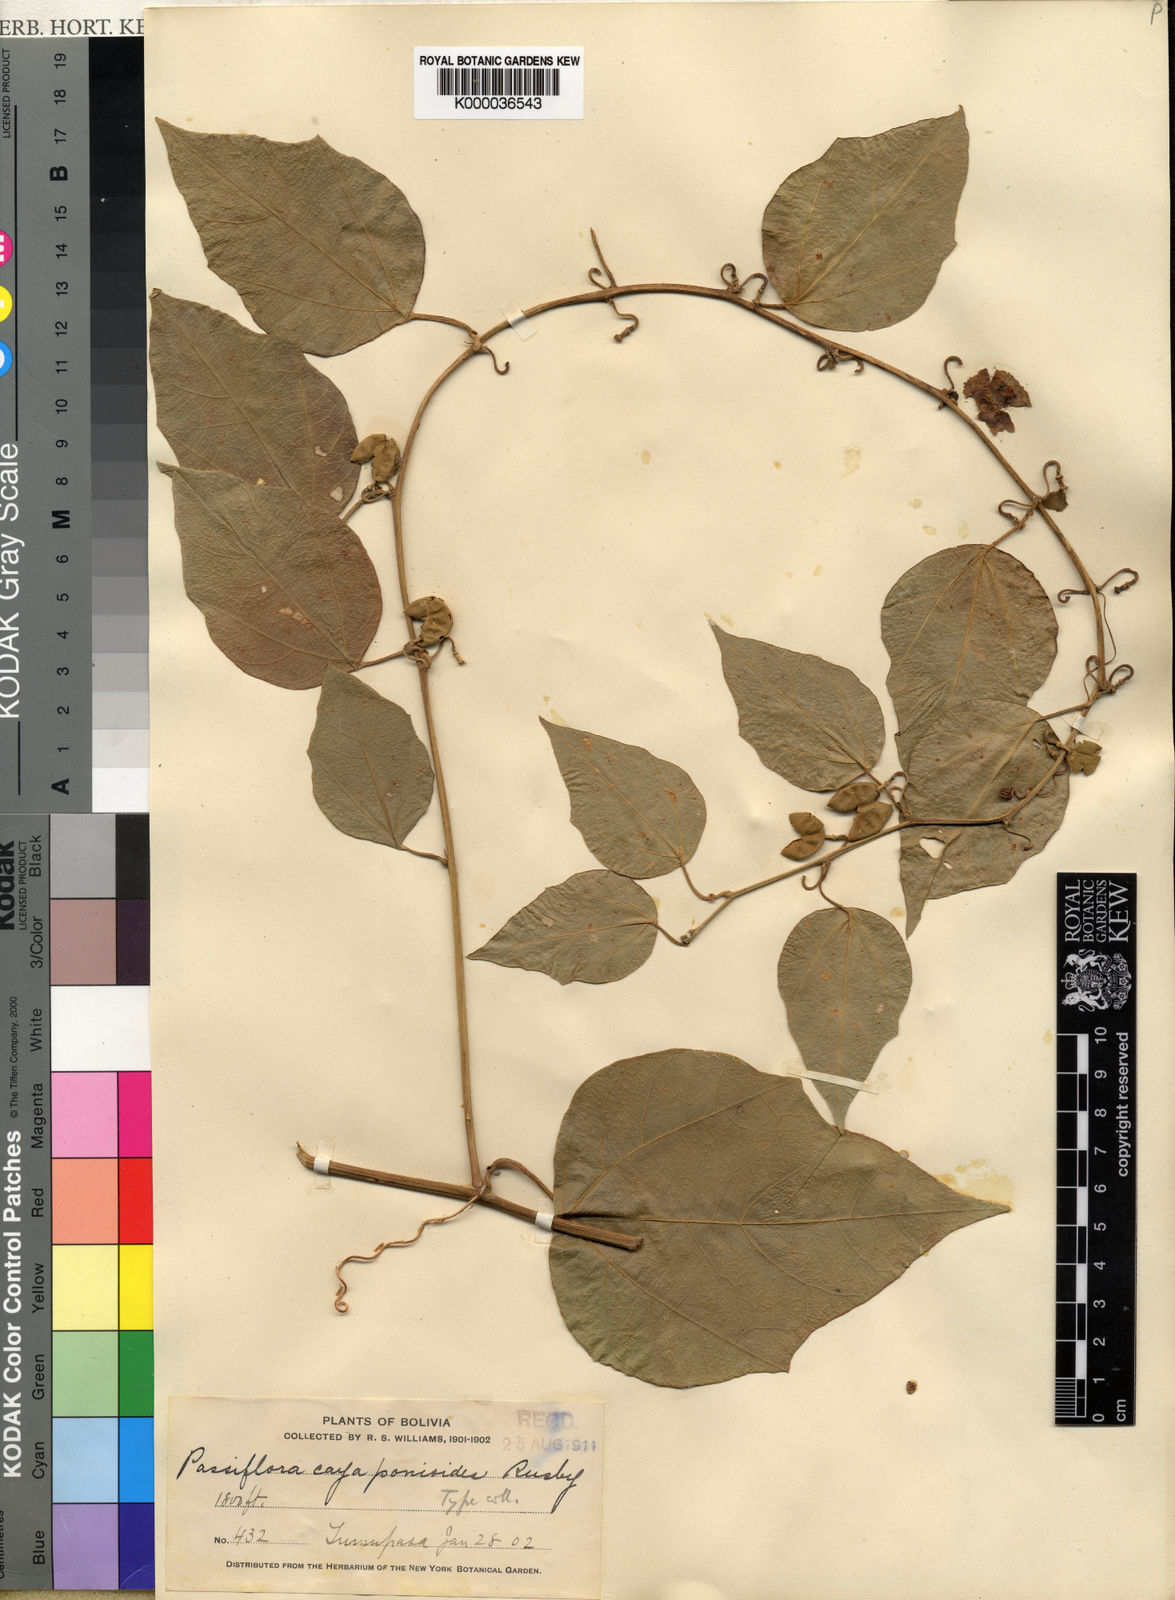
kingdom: Plantae
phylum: Tracheophyta
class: Magnoliopsida
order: Malpighiales
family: Passifloraceae
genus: Passiflora
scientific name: Passiflora
